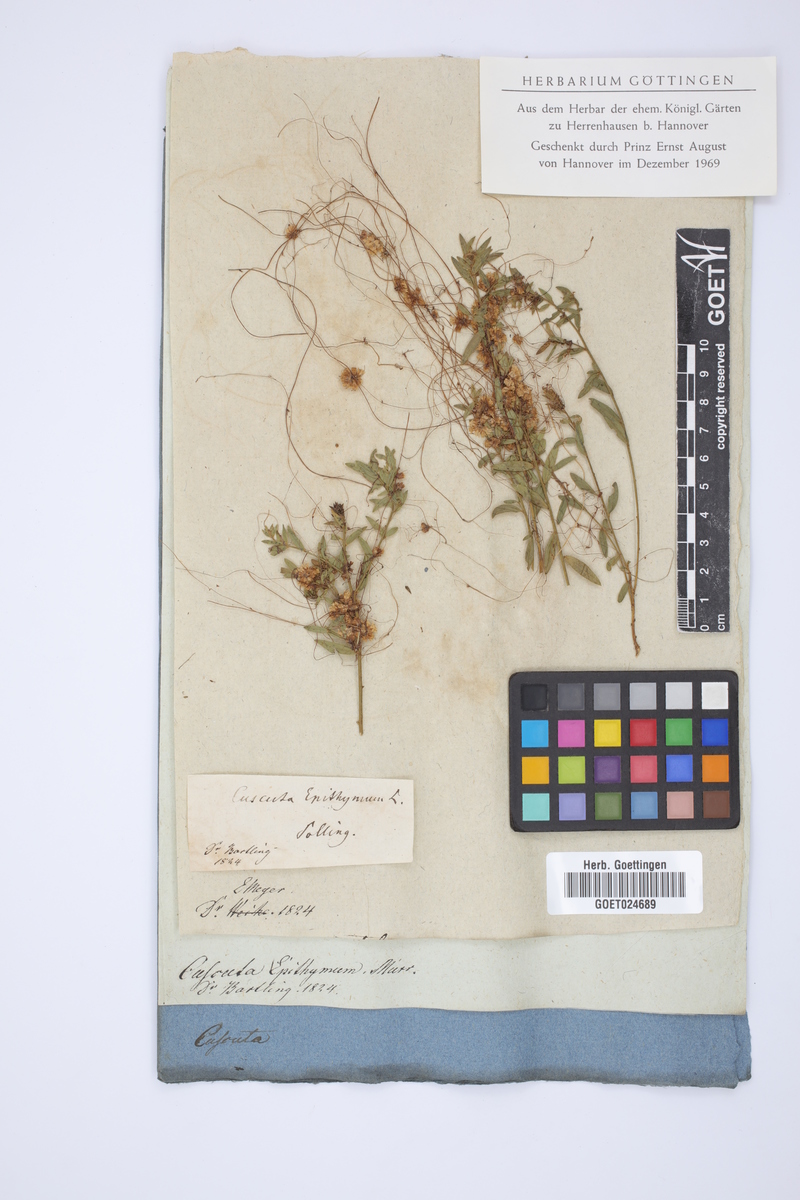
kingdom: Plantae
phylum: Tracheophyta
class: Magnoliopsida
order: Solanales
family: Convolvulaceae
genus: Cuscuta
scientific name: Cuscuta epithymum
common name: Clover dodder
